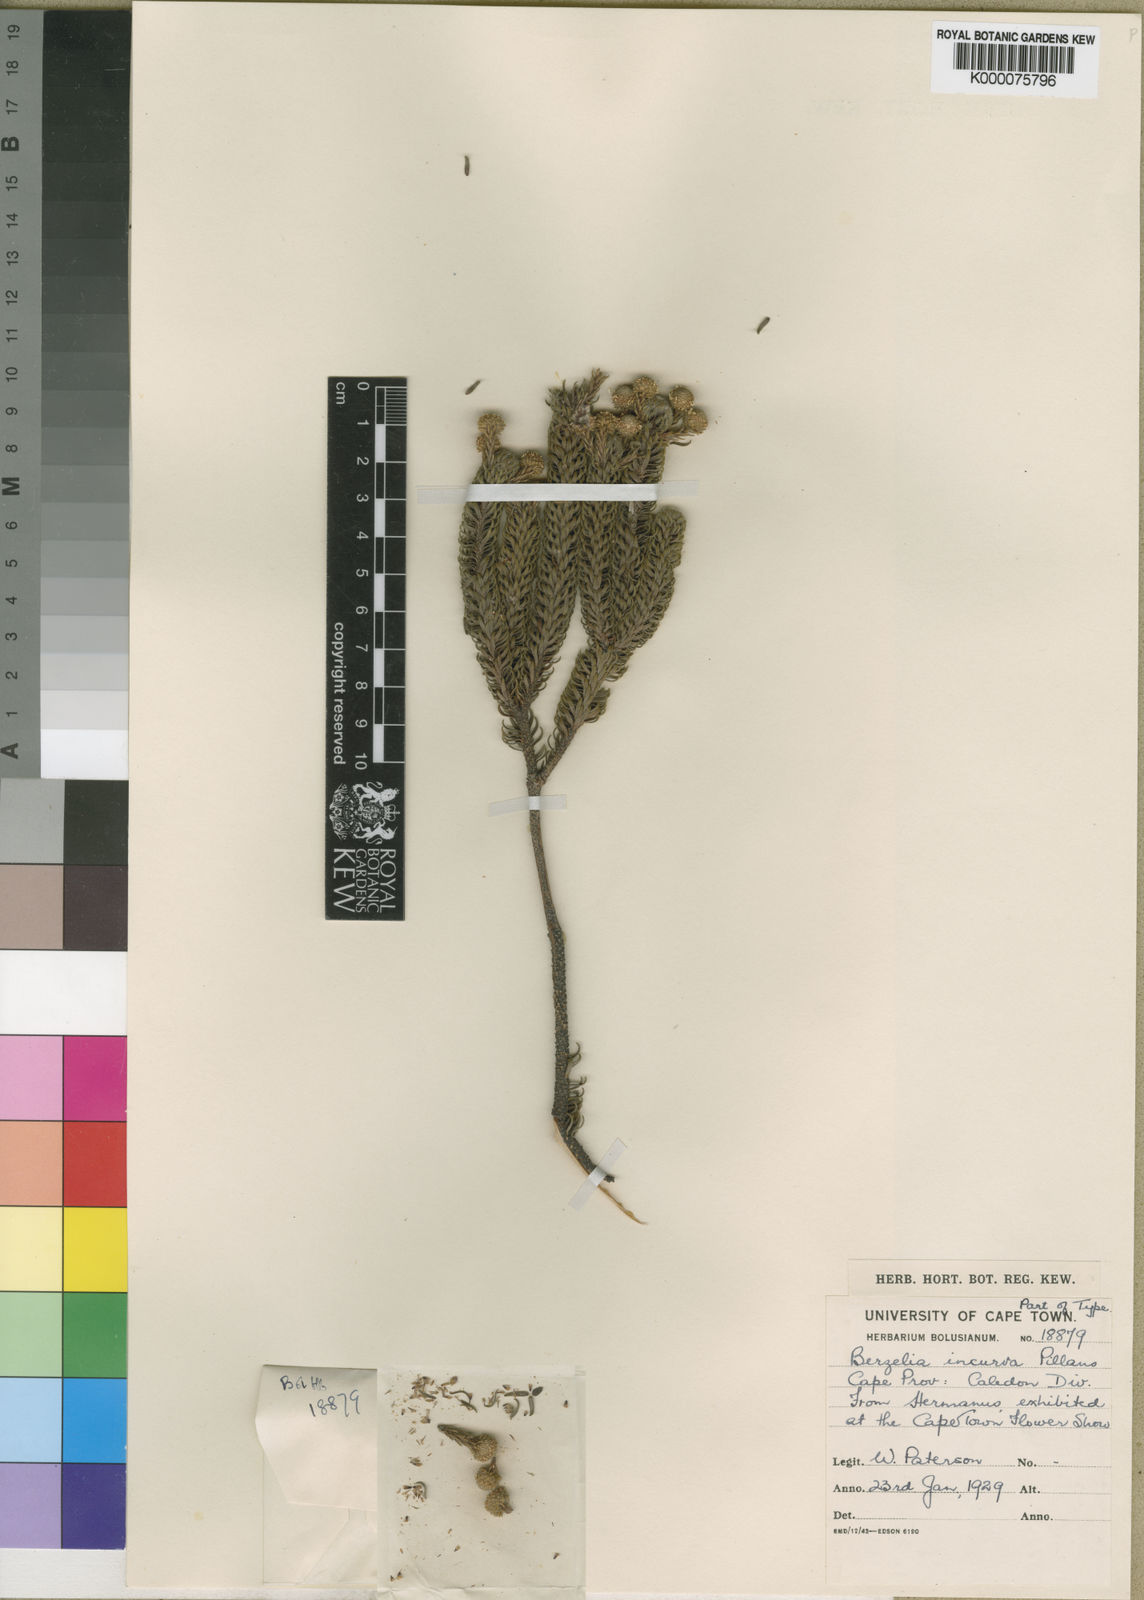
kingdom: Plantae
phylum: Tracheophyta
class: Magnoliopsida
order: Bruniales
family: Bruniaceae
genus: Berzelia
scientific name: Berzelia incurva
